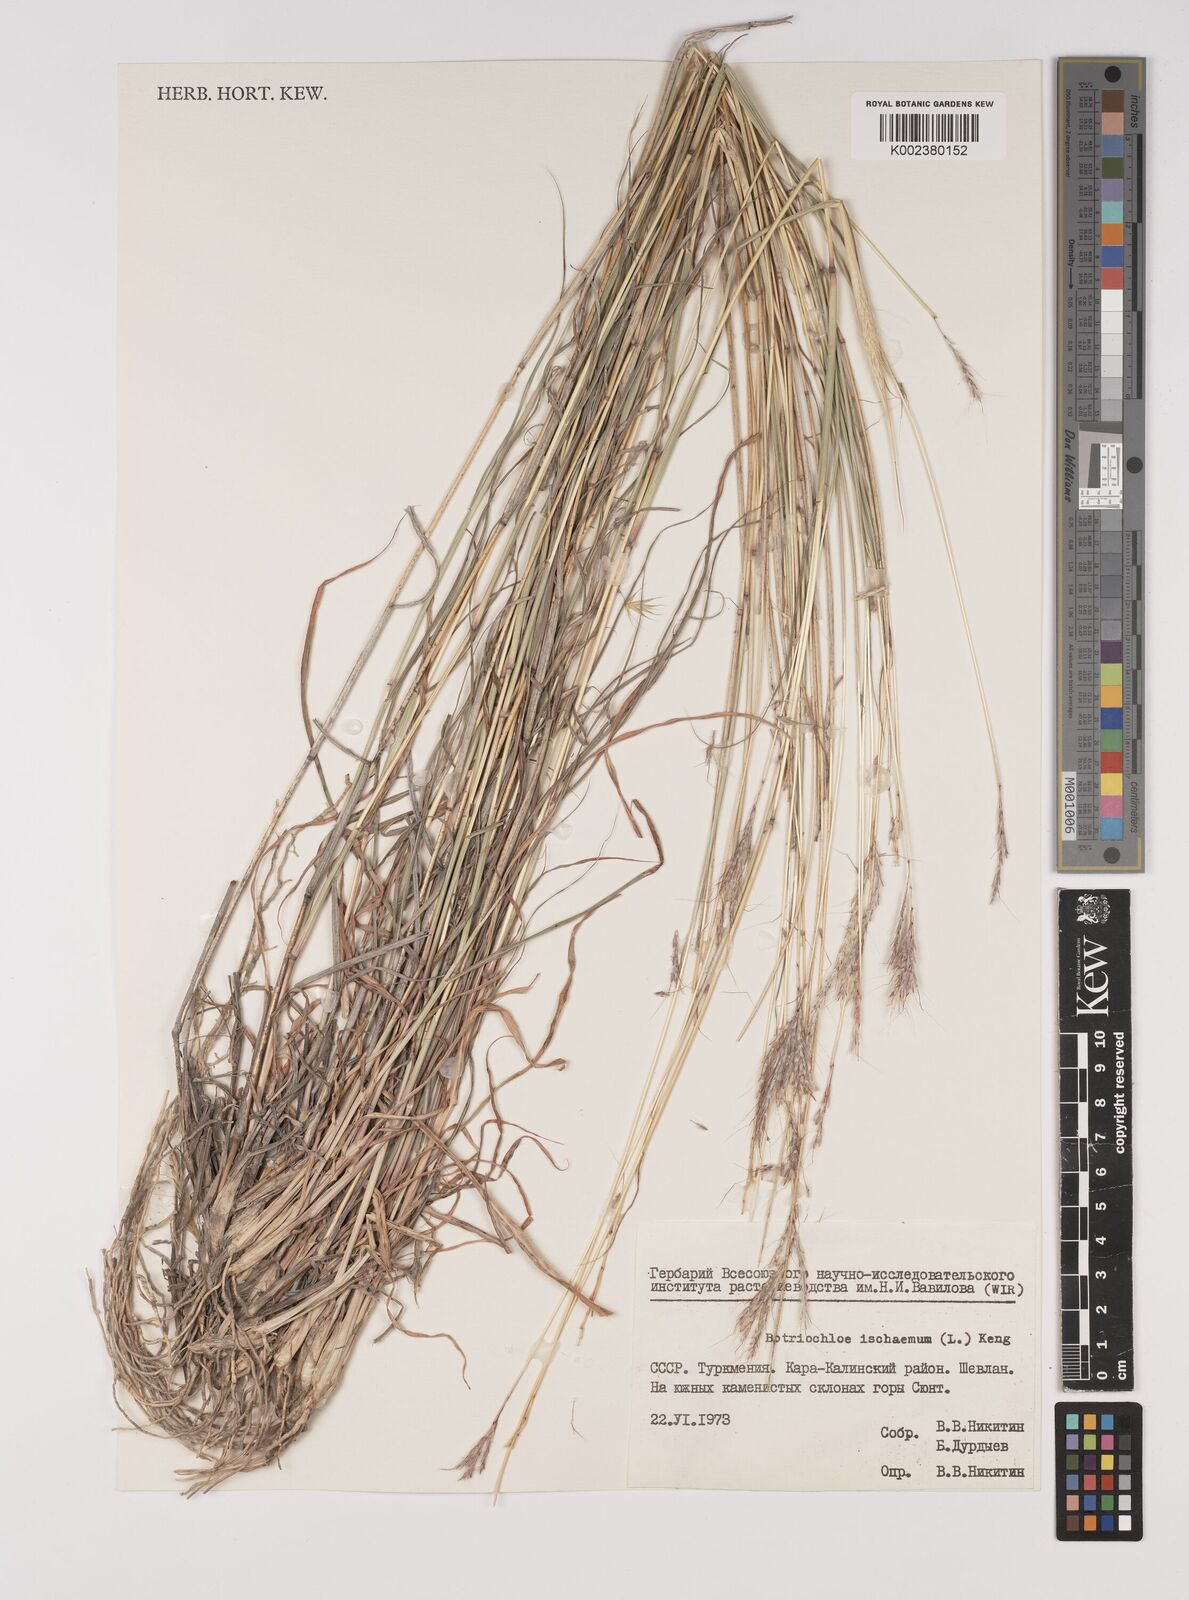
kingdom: Plantae
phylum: Tracheophyta
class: Liliopsida
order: Poales
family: Poaceae
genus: Bothriochloa
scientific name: Bothriochloa ischaemum
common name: Yellow bluestem
